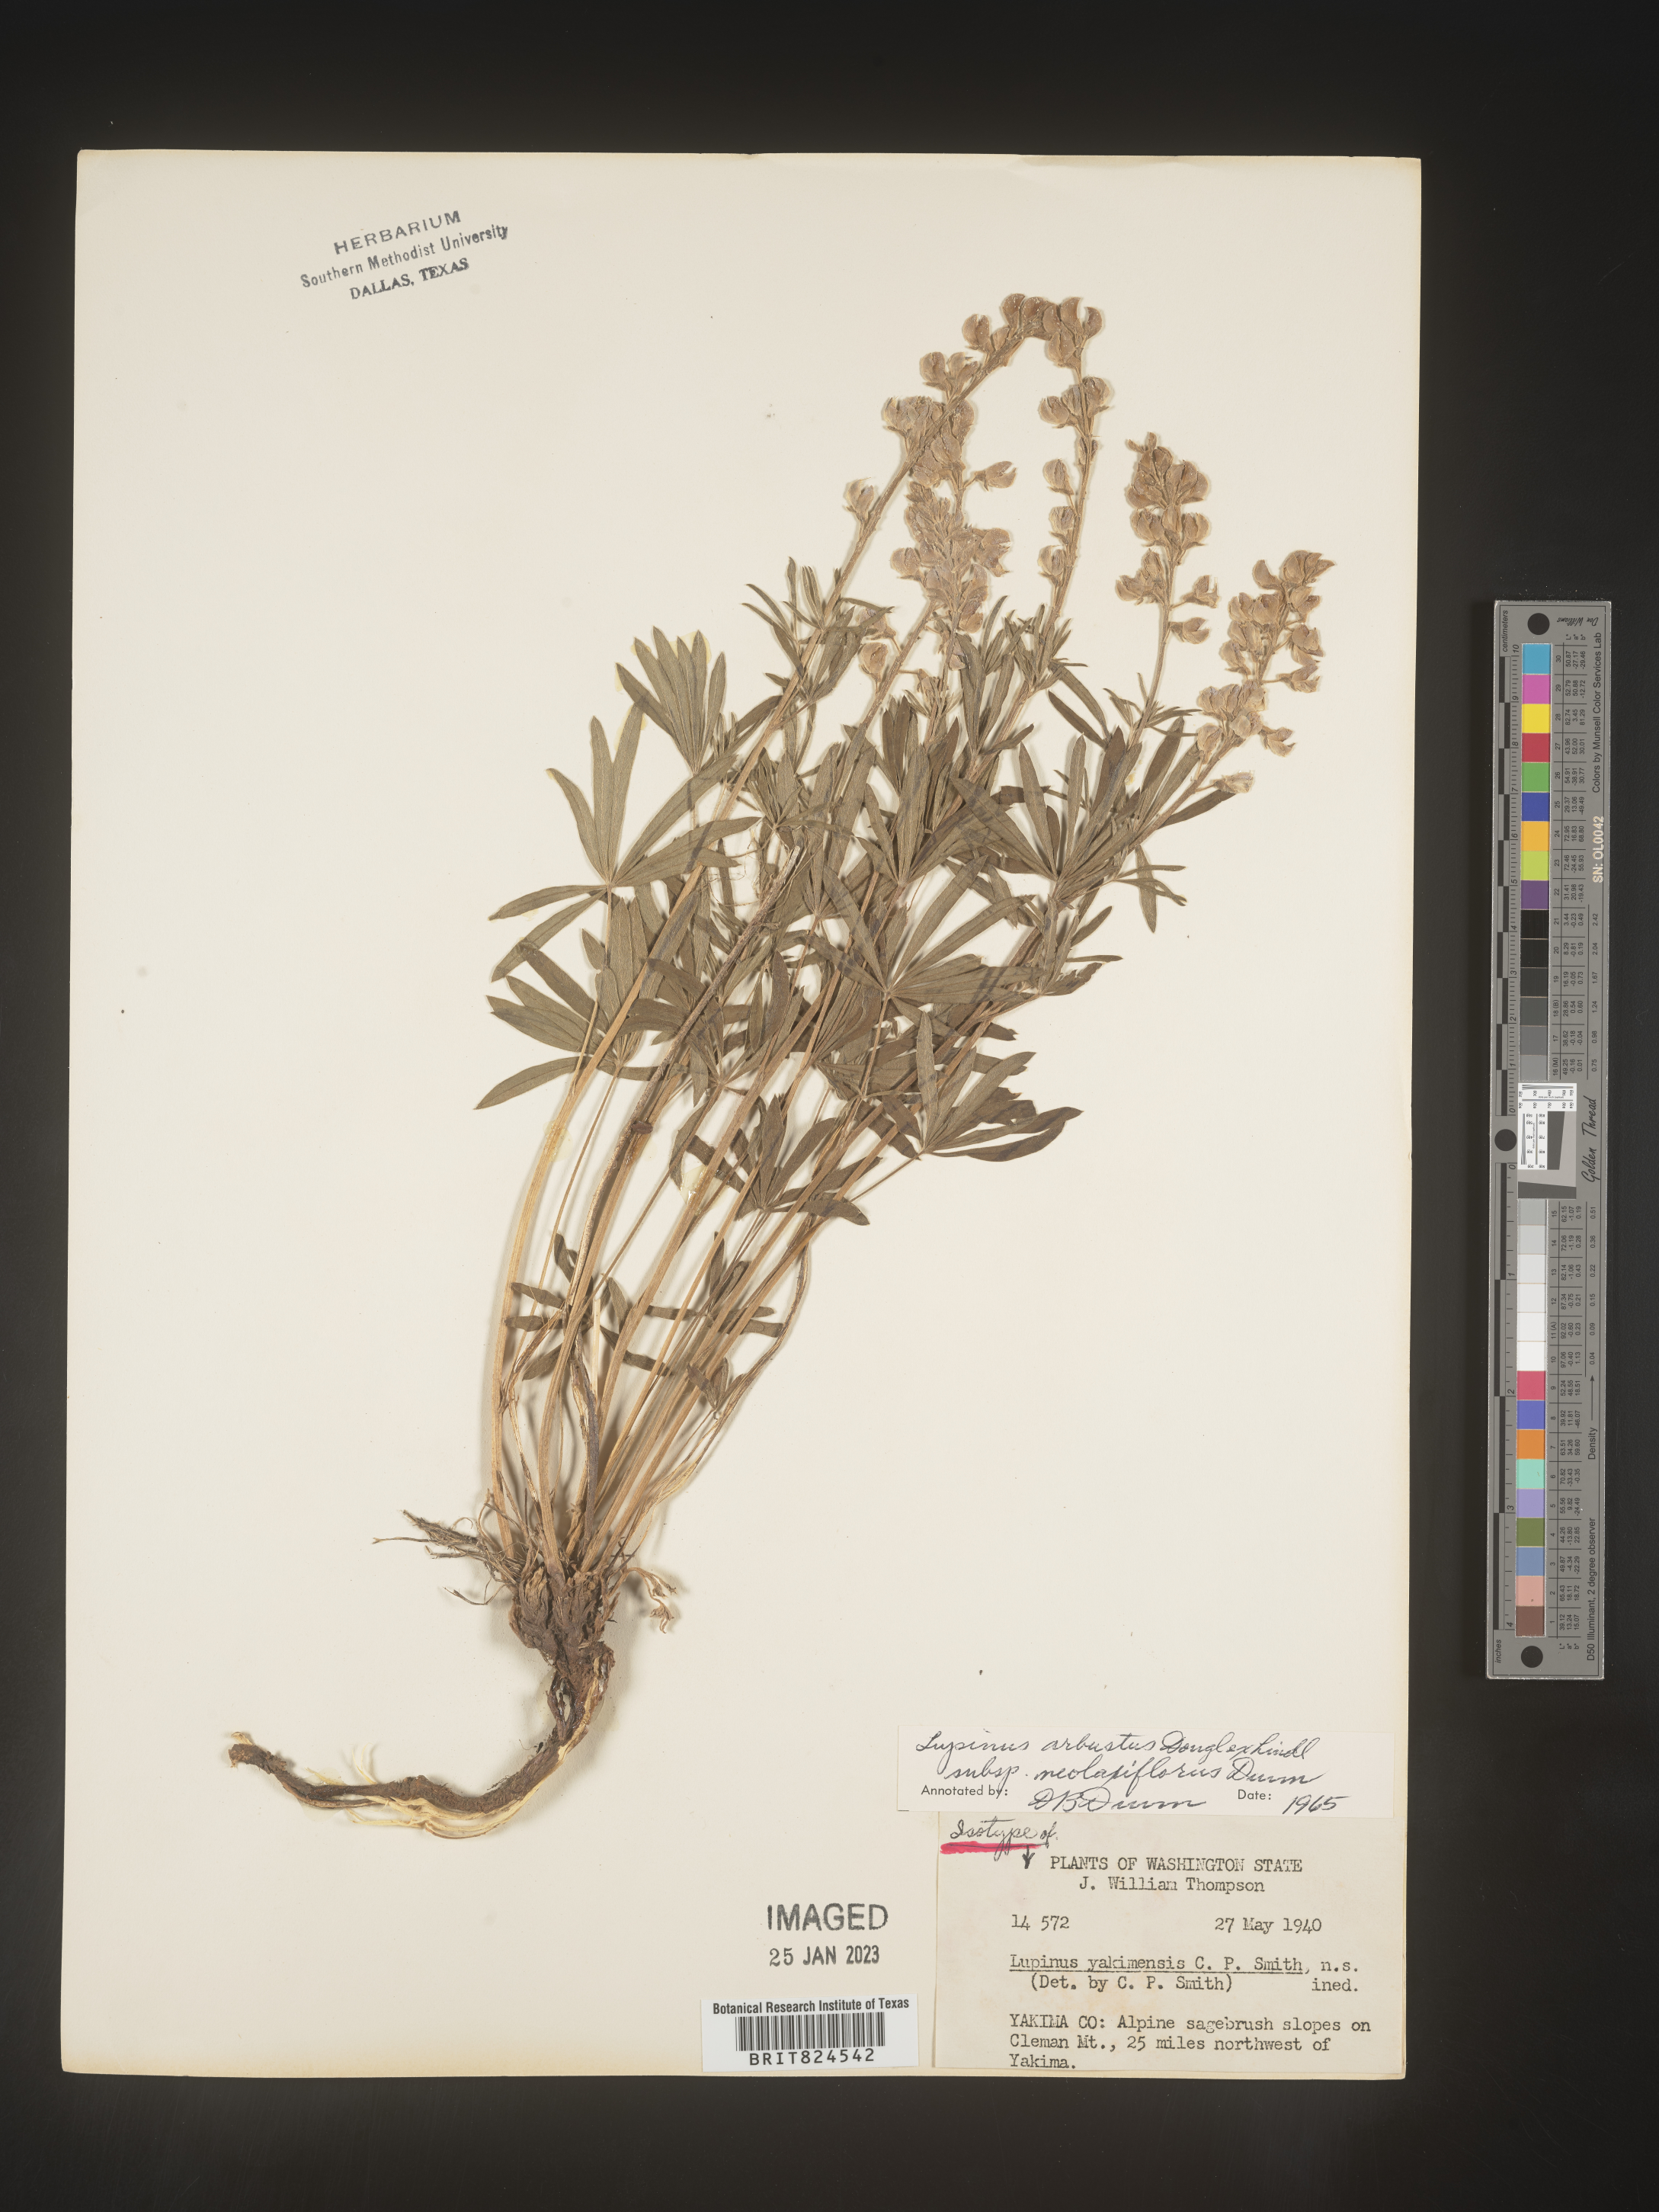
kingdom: Plantae
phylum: Tracheophyta
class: Magnoliopsida
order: Fabales
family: Fabaceae
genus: Lupinus
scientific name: Lupinus arbustus
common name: Montana lupine
